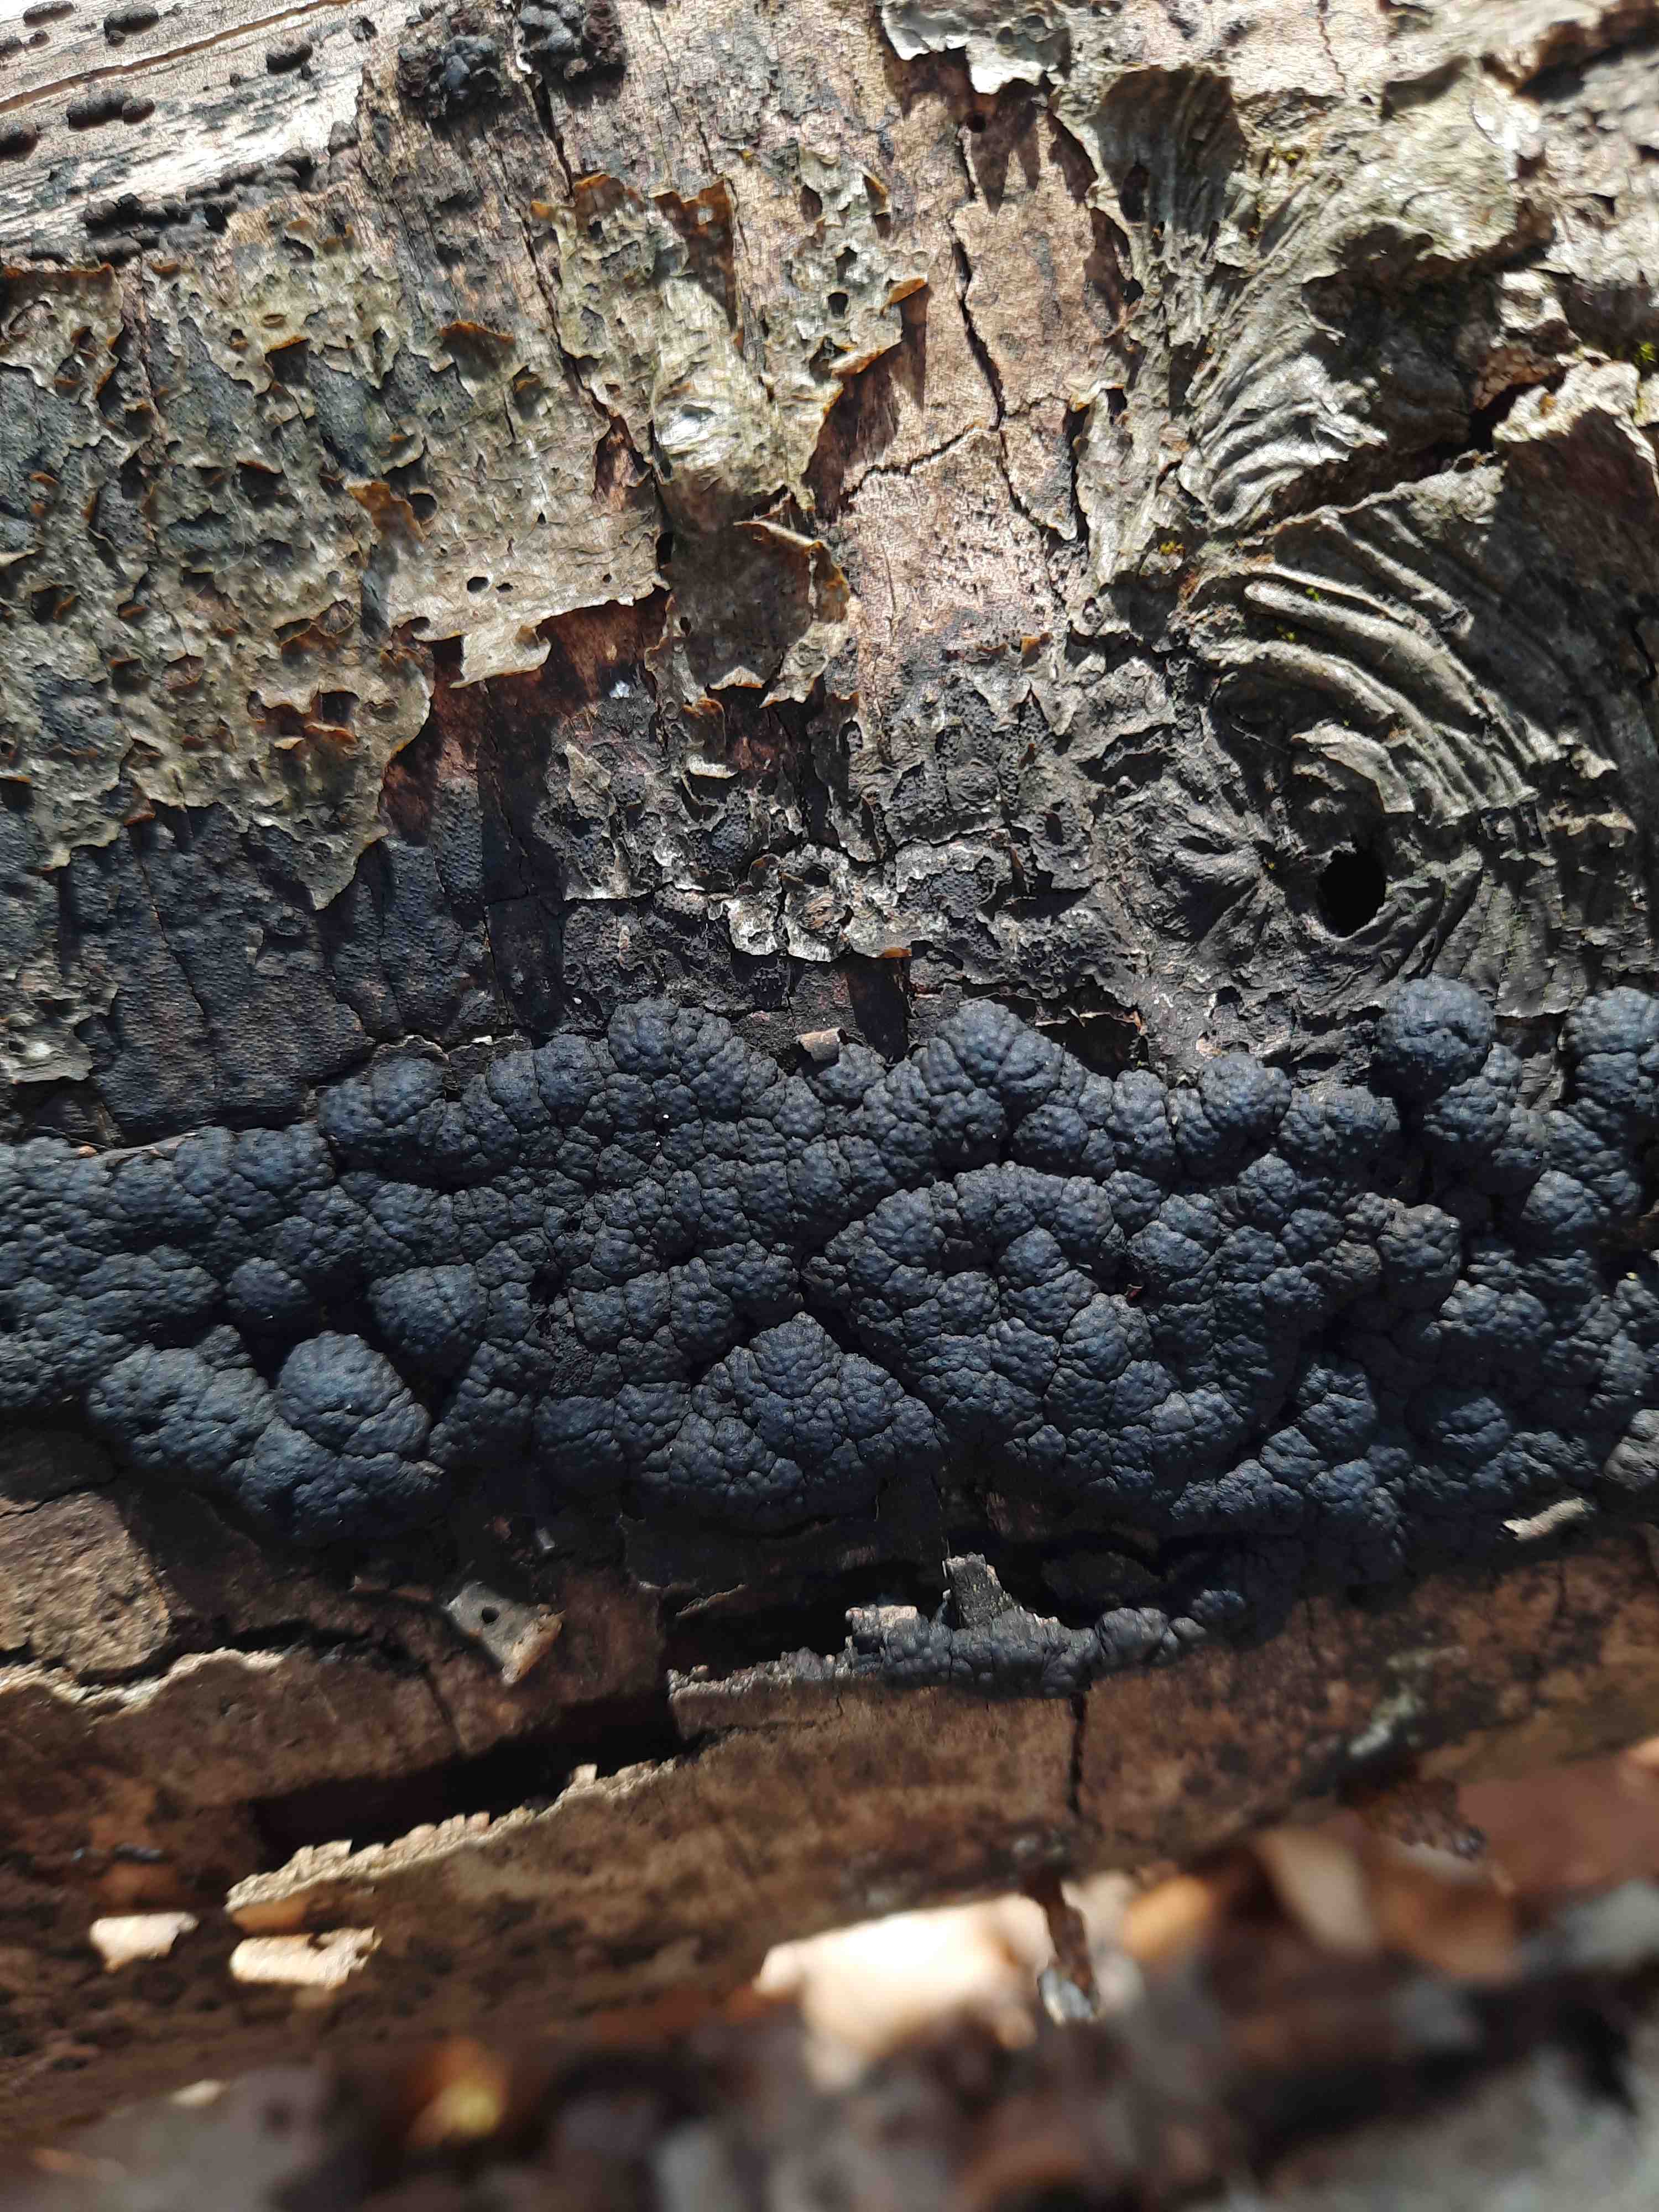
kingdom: Fungi
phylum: Ascomycota
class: Sordariomycetes
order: Xylariales
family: Hypoxylaceae
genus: Jackrogersella
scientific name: Jackrogersella cohaerens
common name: sammenflydende kulbær
